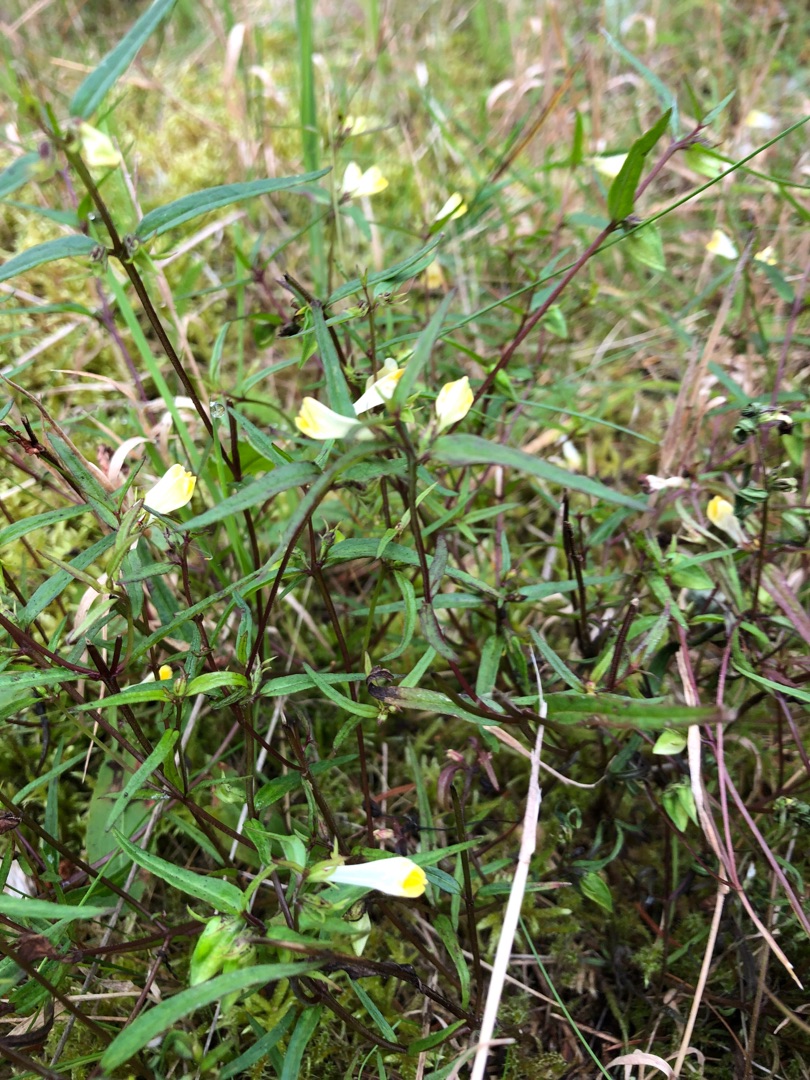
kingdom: Plantae
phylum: Tracheophyta
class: Magnoliopsida
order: Lamiales
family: Orobanchaceae
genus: Melampyrum
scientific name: Melampyrum pratense
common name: Almindelig kohvede
